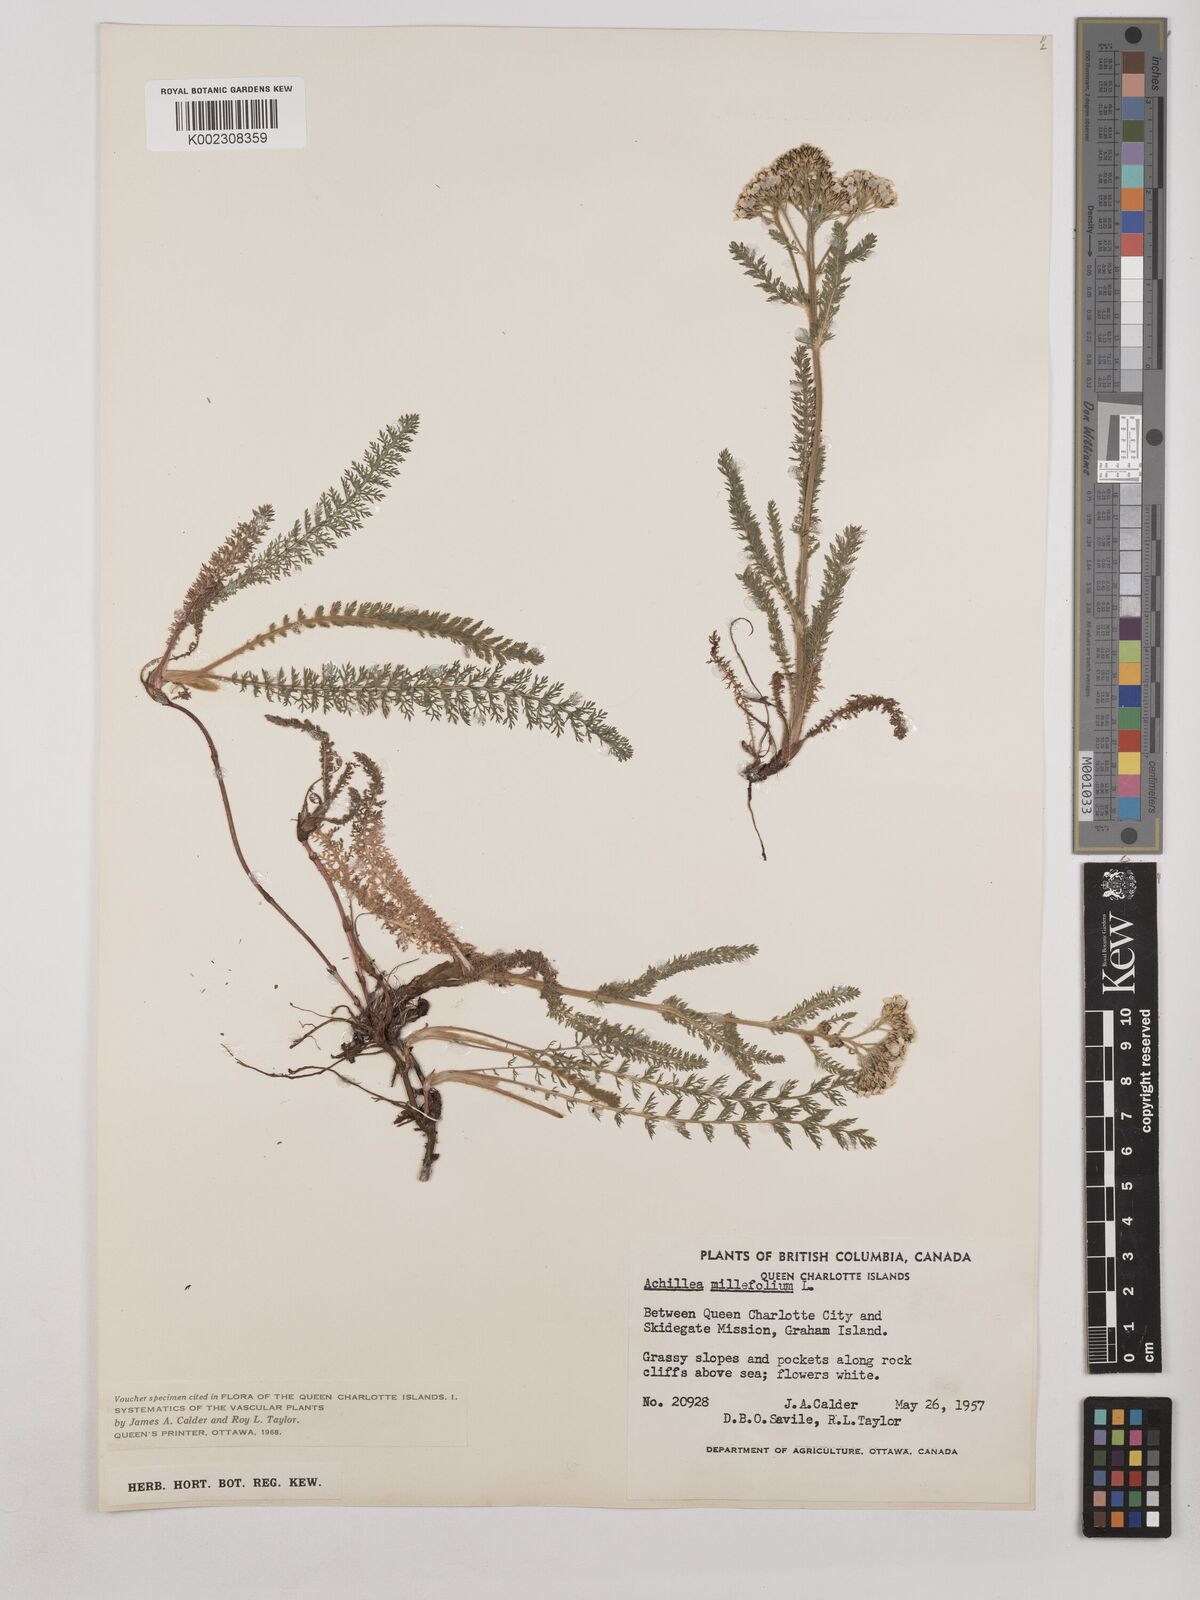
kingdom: Plantae
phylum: Tracheophyta
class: Magnoliopsida
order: Asterales
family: Asteraceae
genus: Achillea
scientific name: Achillea millefolium
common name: Yarrow
